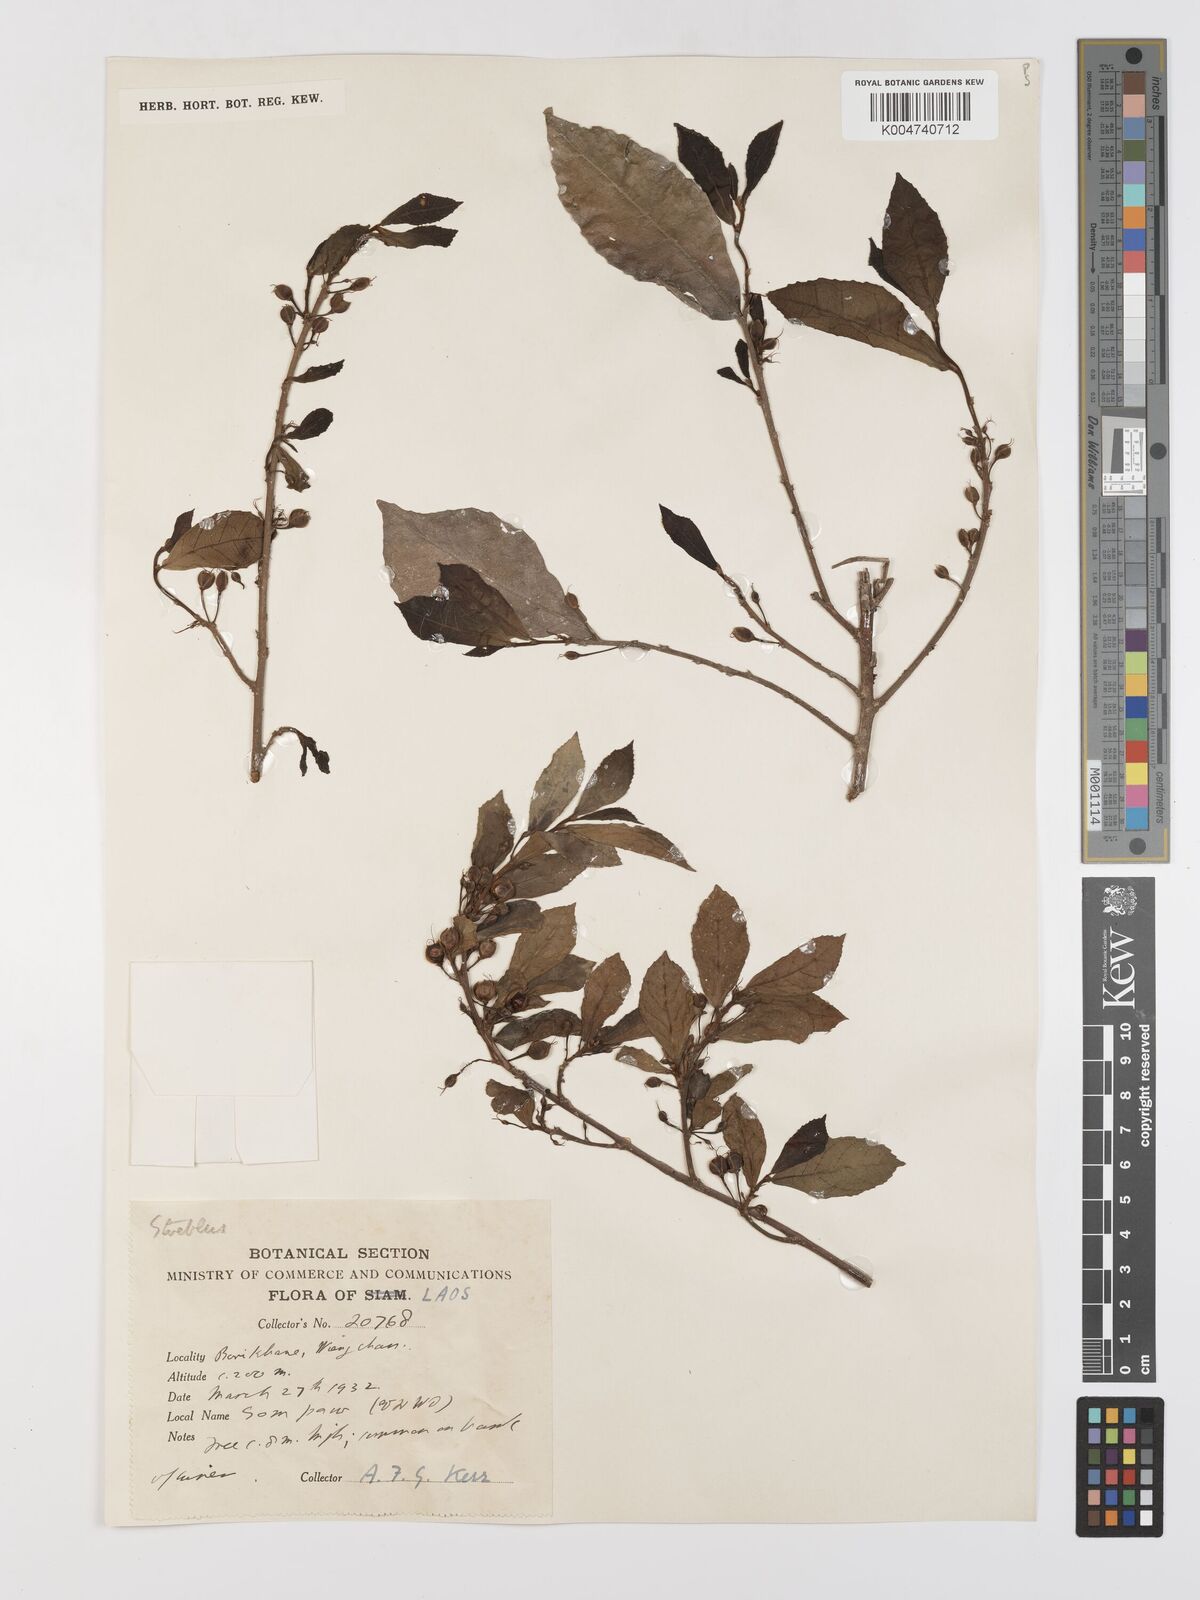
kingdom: Plantae
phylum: Tracheophyta
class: Magnoliopsida
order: Rosales
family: Moraceae
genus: Streblus
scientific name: Streblus asper
